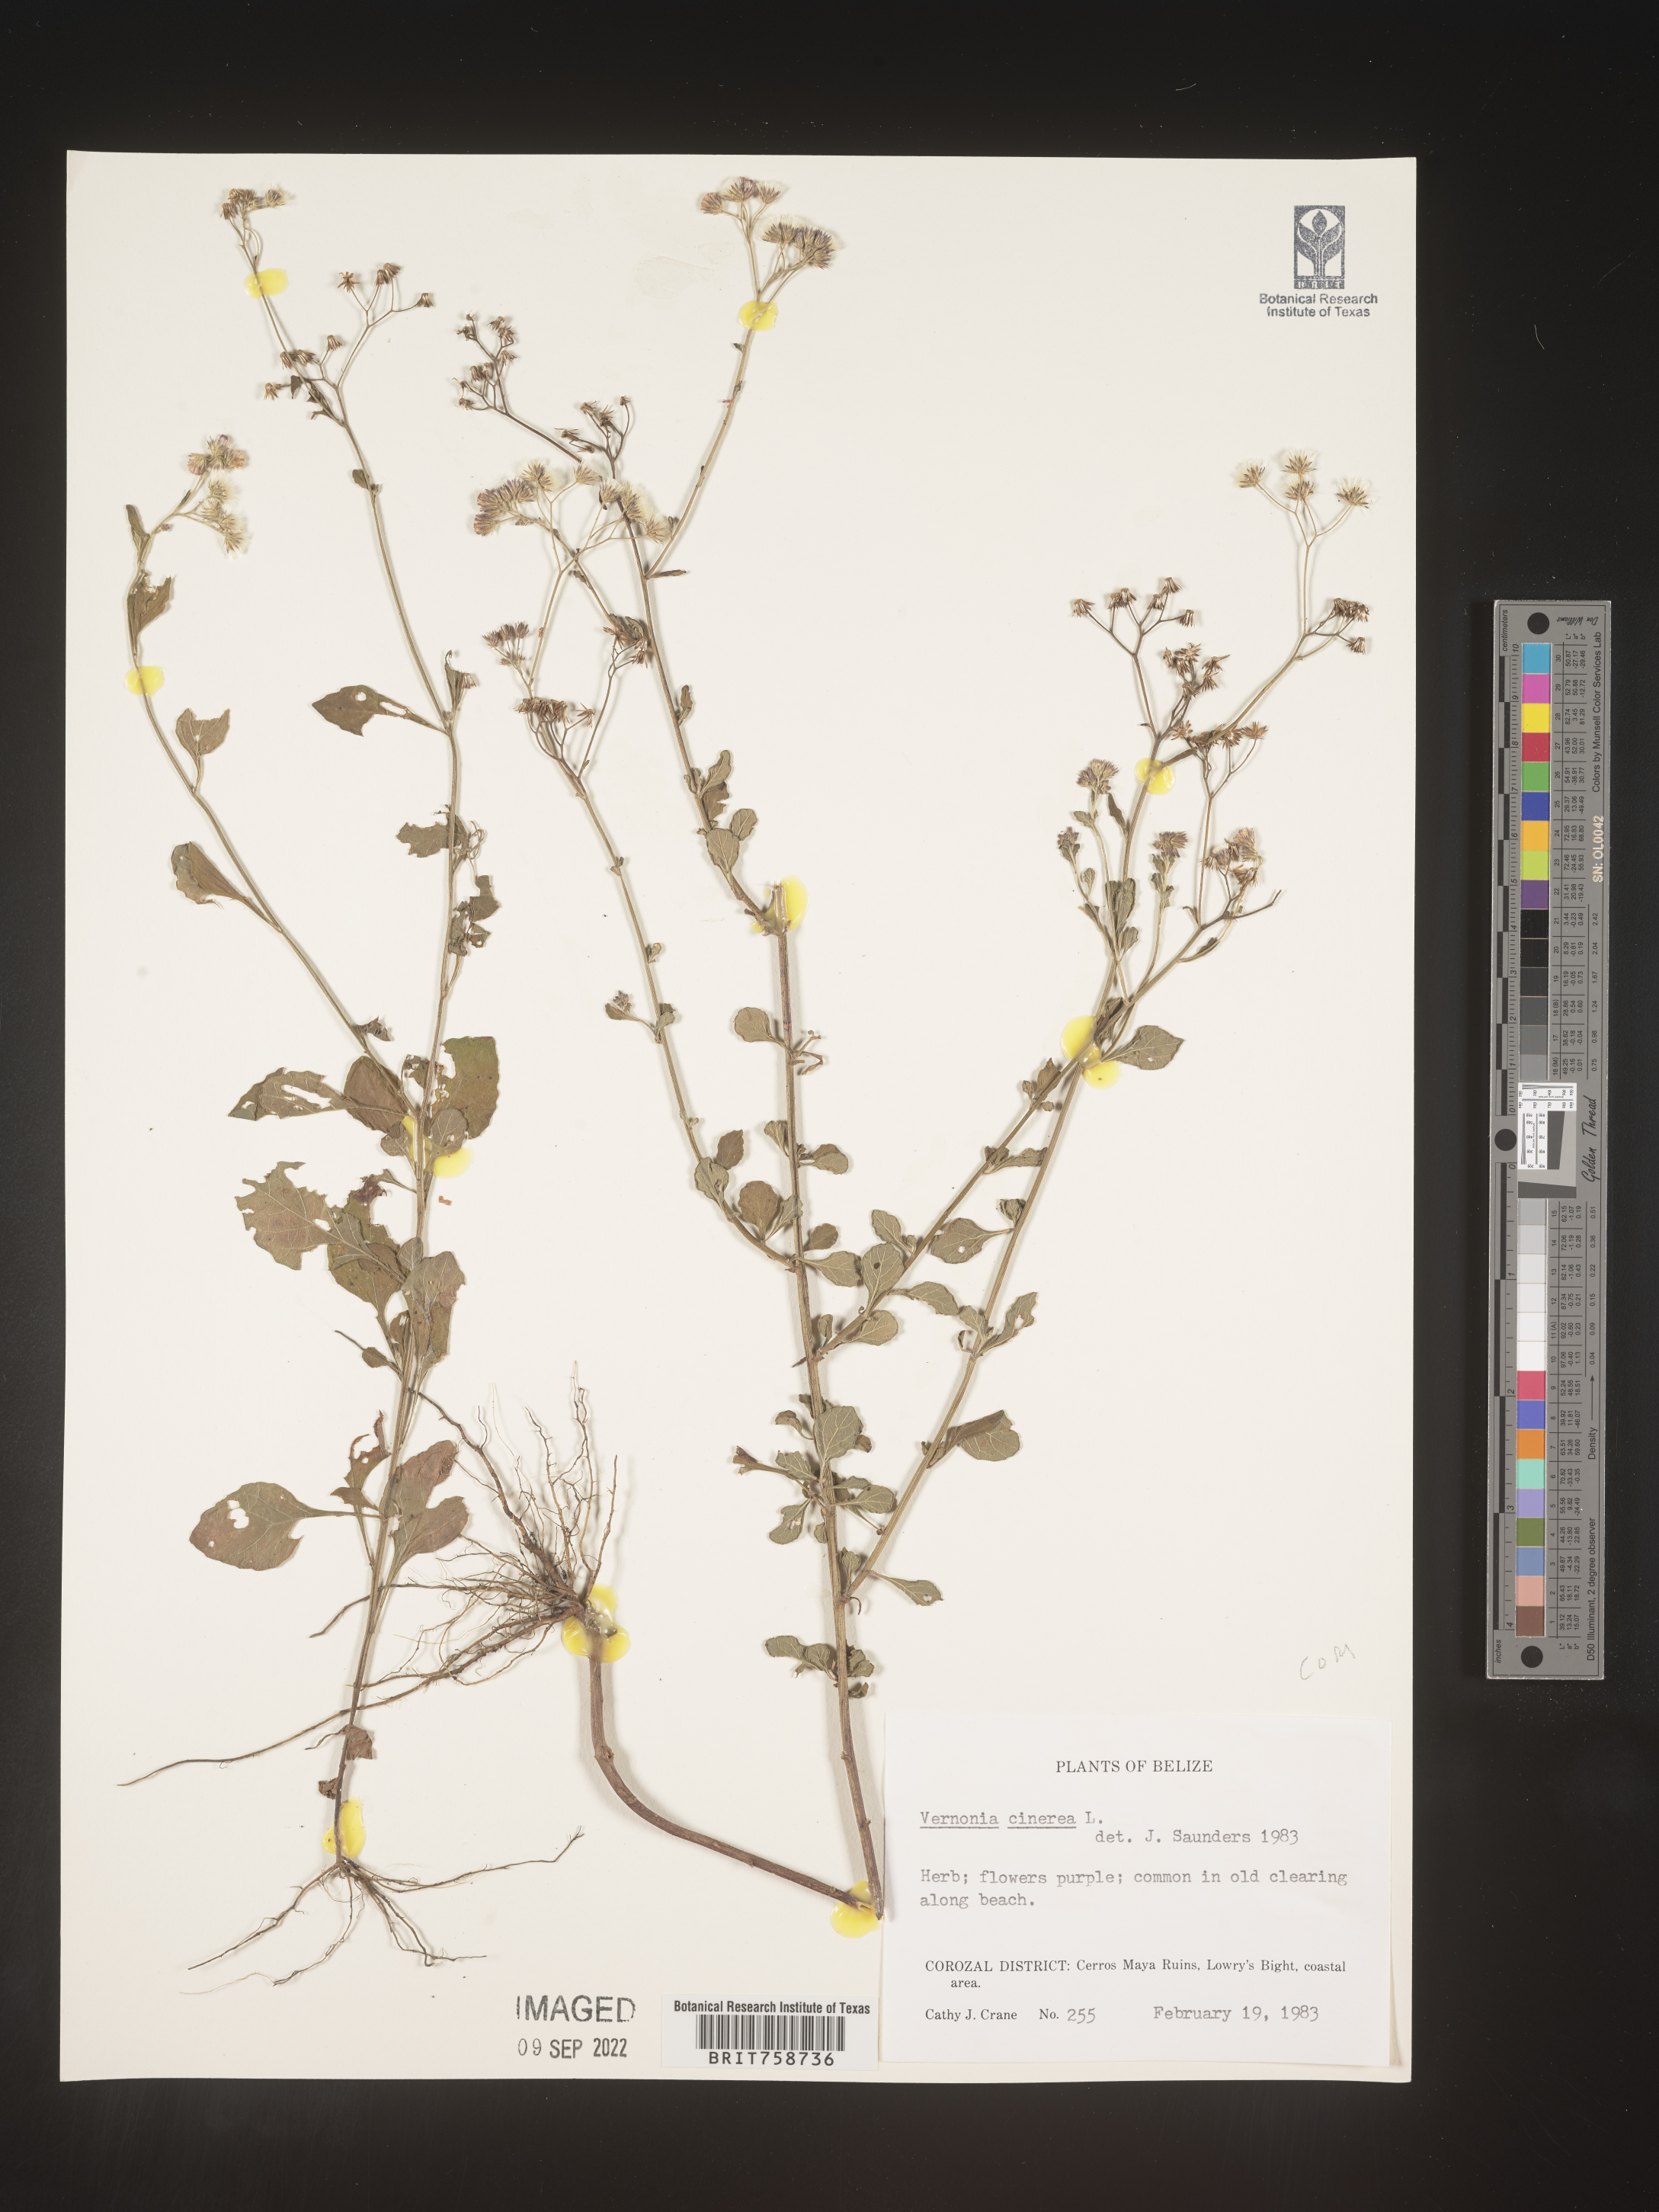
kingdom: Plantae
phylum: Tracheophyta
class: Magnoliopsida
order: Asterales
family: Asteraceae
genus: Vernonia
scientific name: Vernonia
